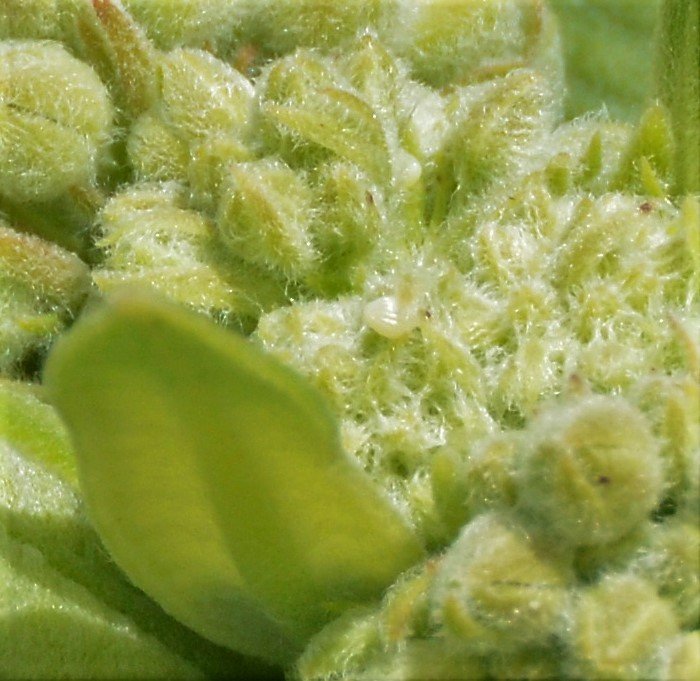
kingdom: Animalia
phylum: Arthropoda
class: Insecta
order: Lepidoptera
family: Nymphalidae
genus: Danaus
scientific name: Danaus plexippus
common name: Monarch
